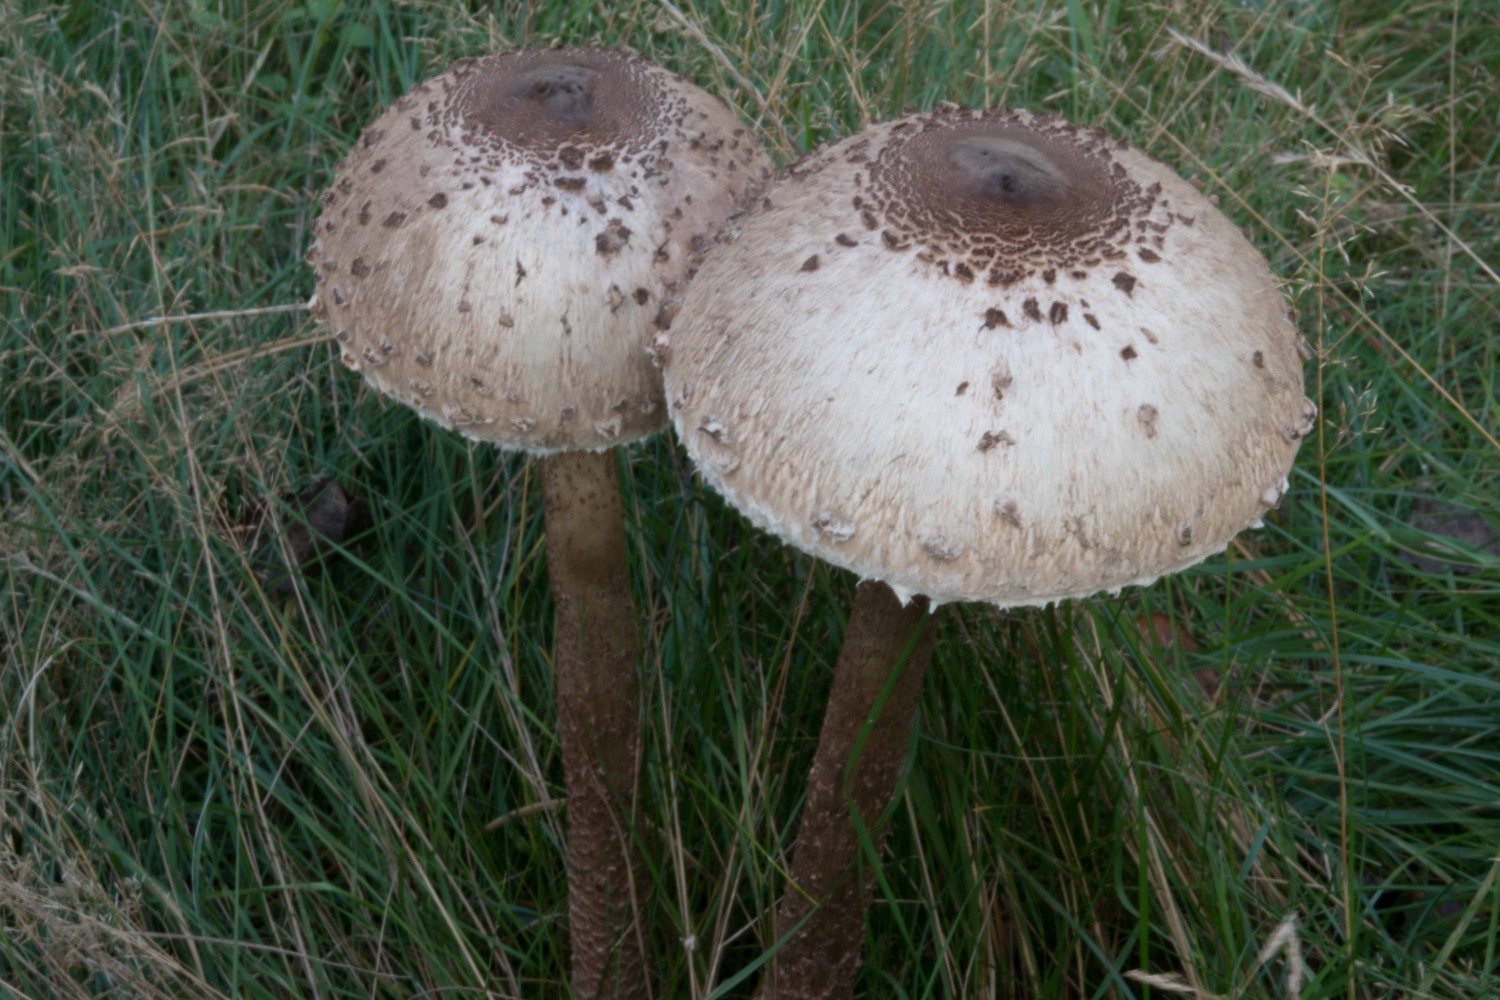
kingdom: Fungi
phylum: Basidiomycota
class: Agaricomycetes
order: Agaricales
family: Agaricaceae
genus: Macrolepiota
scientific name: Macrolepiota procera
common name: stor kæmpeparasolhat
